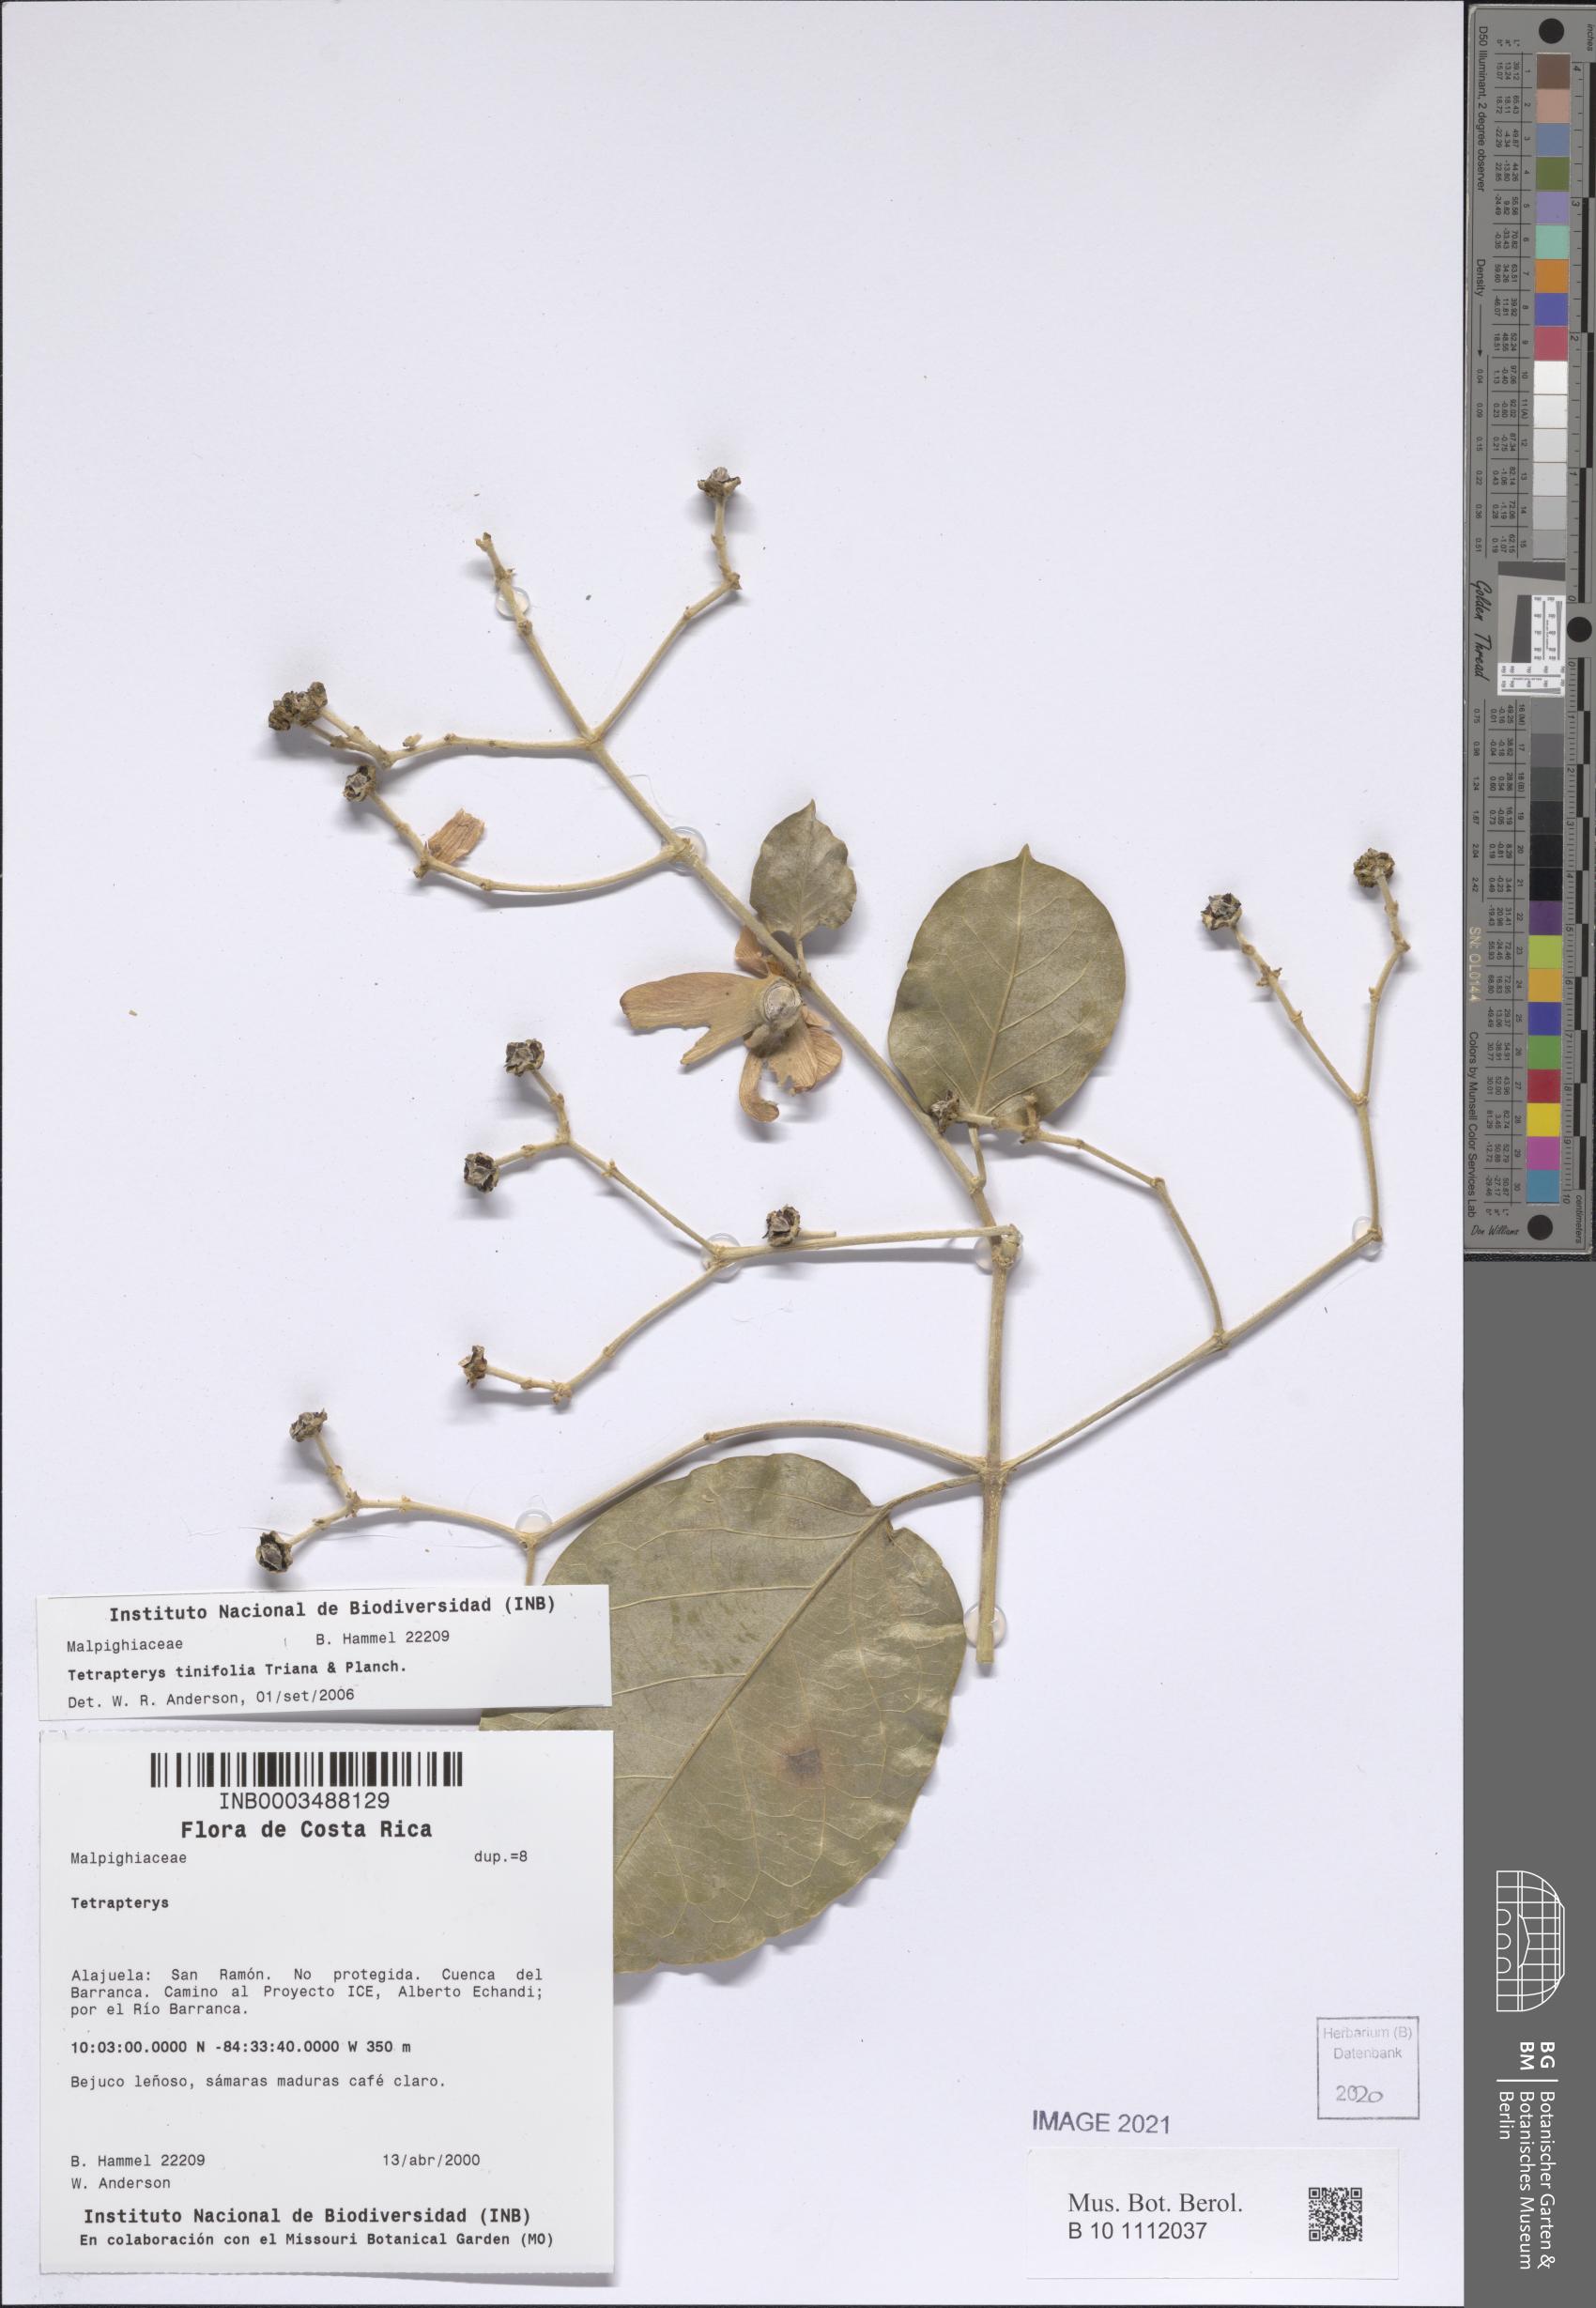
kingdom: Plantae
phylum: Tracheophyta
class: Magnoliopsida
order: Malpighiales
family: Malpighiaceae
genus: Tetrapterys
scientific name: Tetrapterys tinifolia
